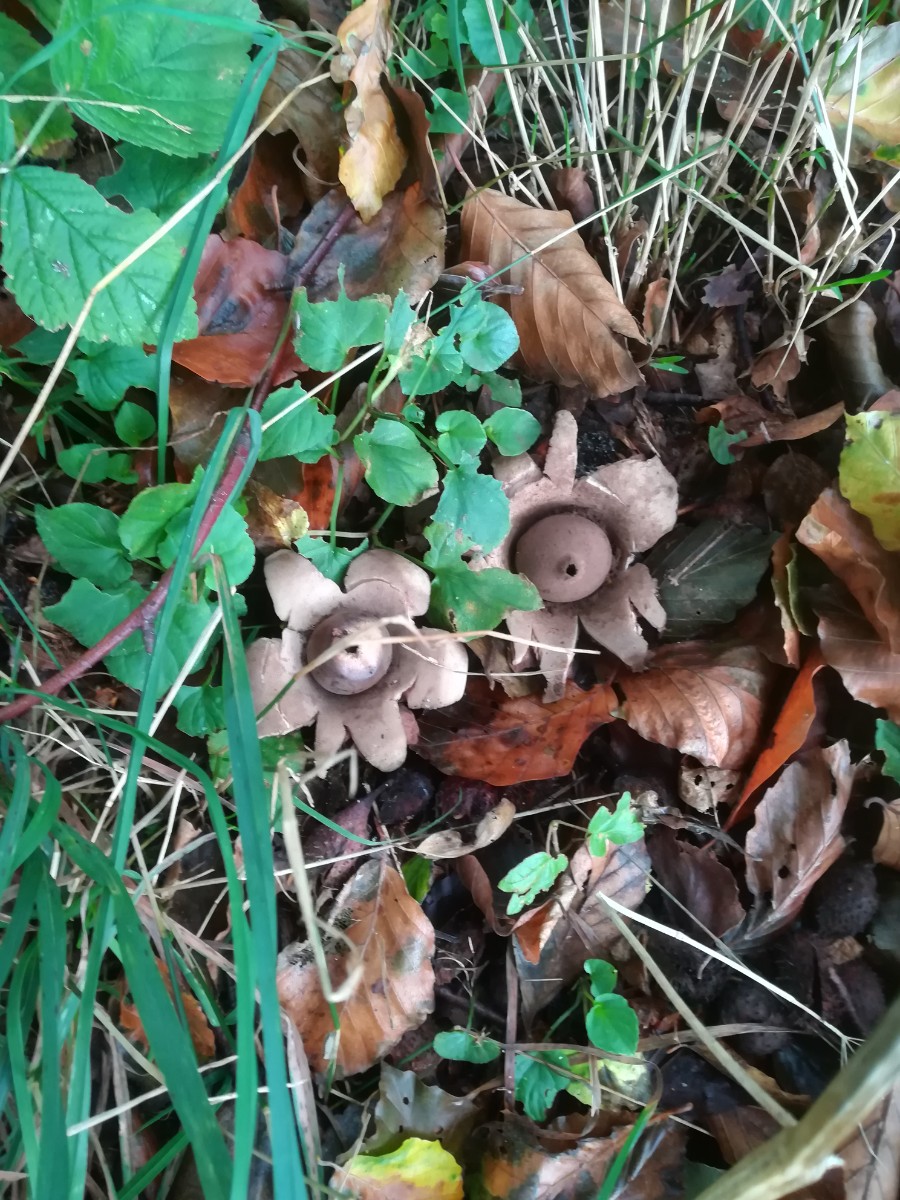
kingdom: Fungi
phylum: Basidiomycota
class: Agaricomycetes
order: Geastrales
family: Geastraceae
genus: Geastrum
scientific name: Geastrum michelianum
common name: kødet stjernebold
